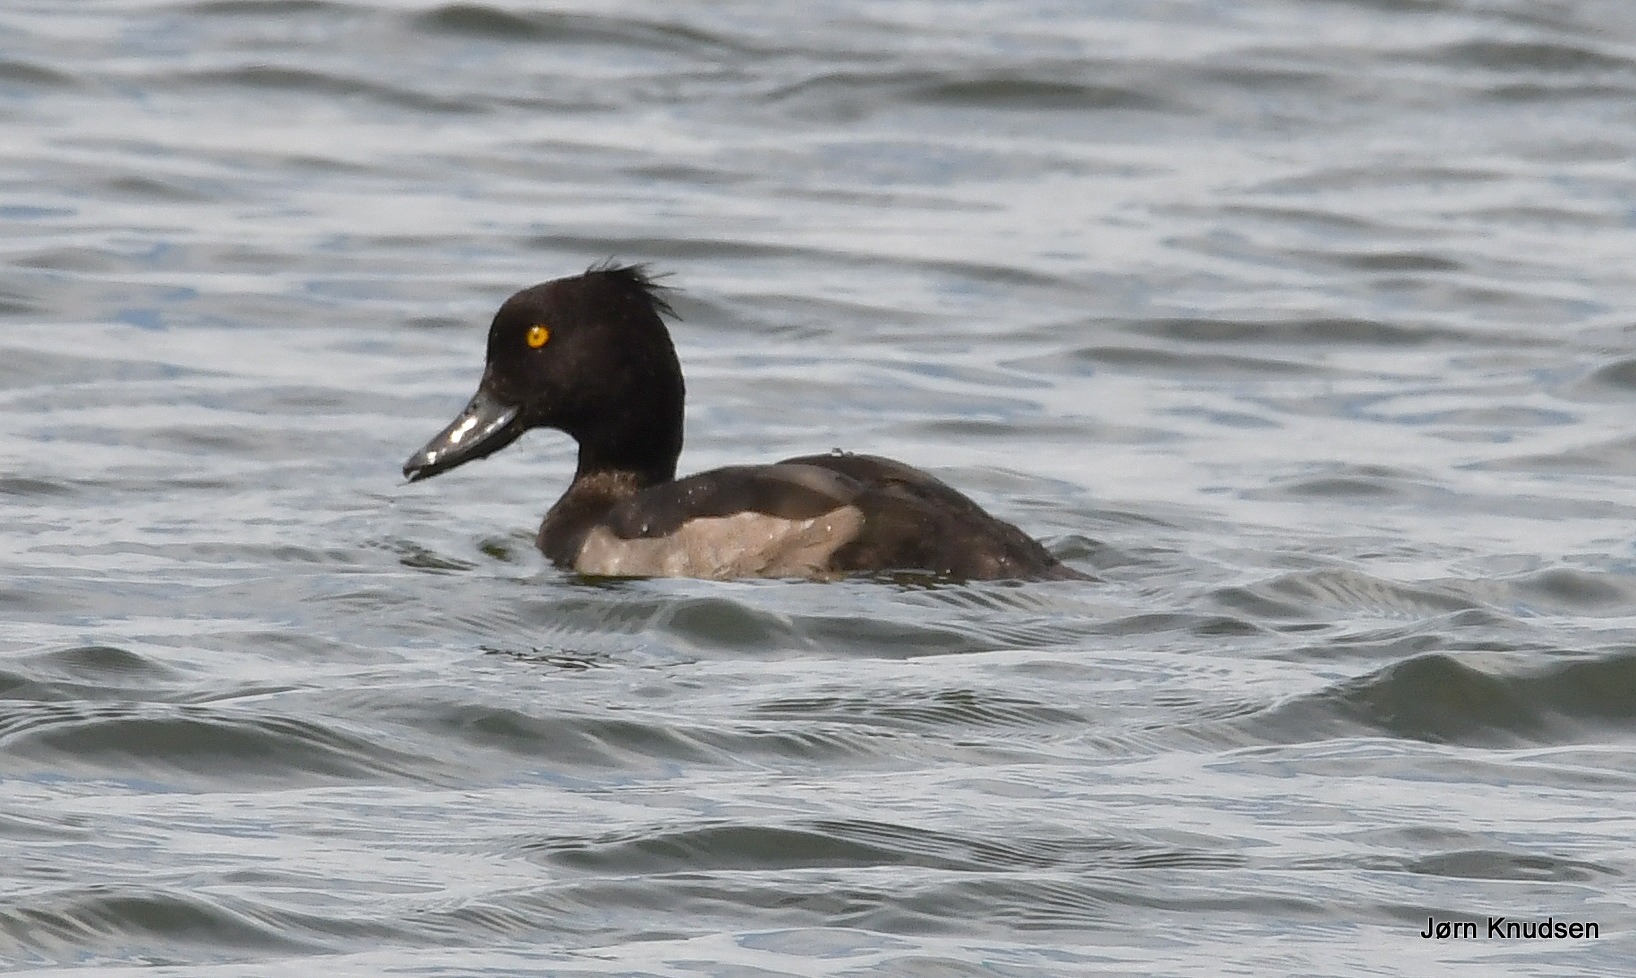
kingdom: Animalia
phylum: Chordata
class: Aves
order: Anseriformes
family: Anatidae
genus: Aythya
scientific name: Aythya fuligula
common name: Troldand
